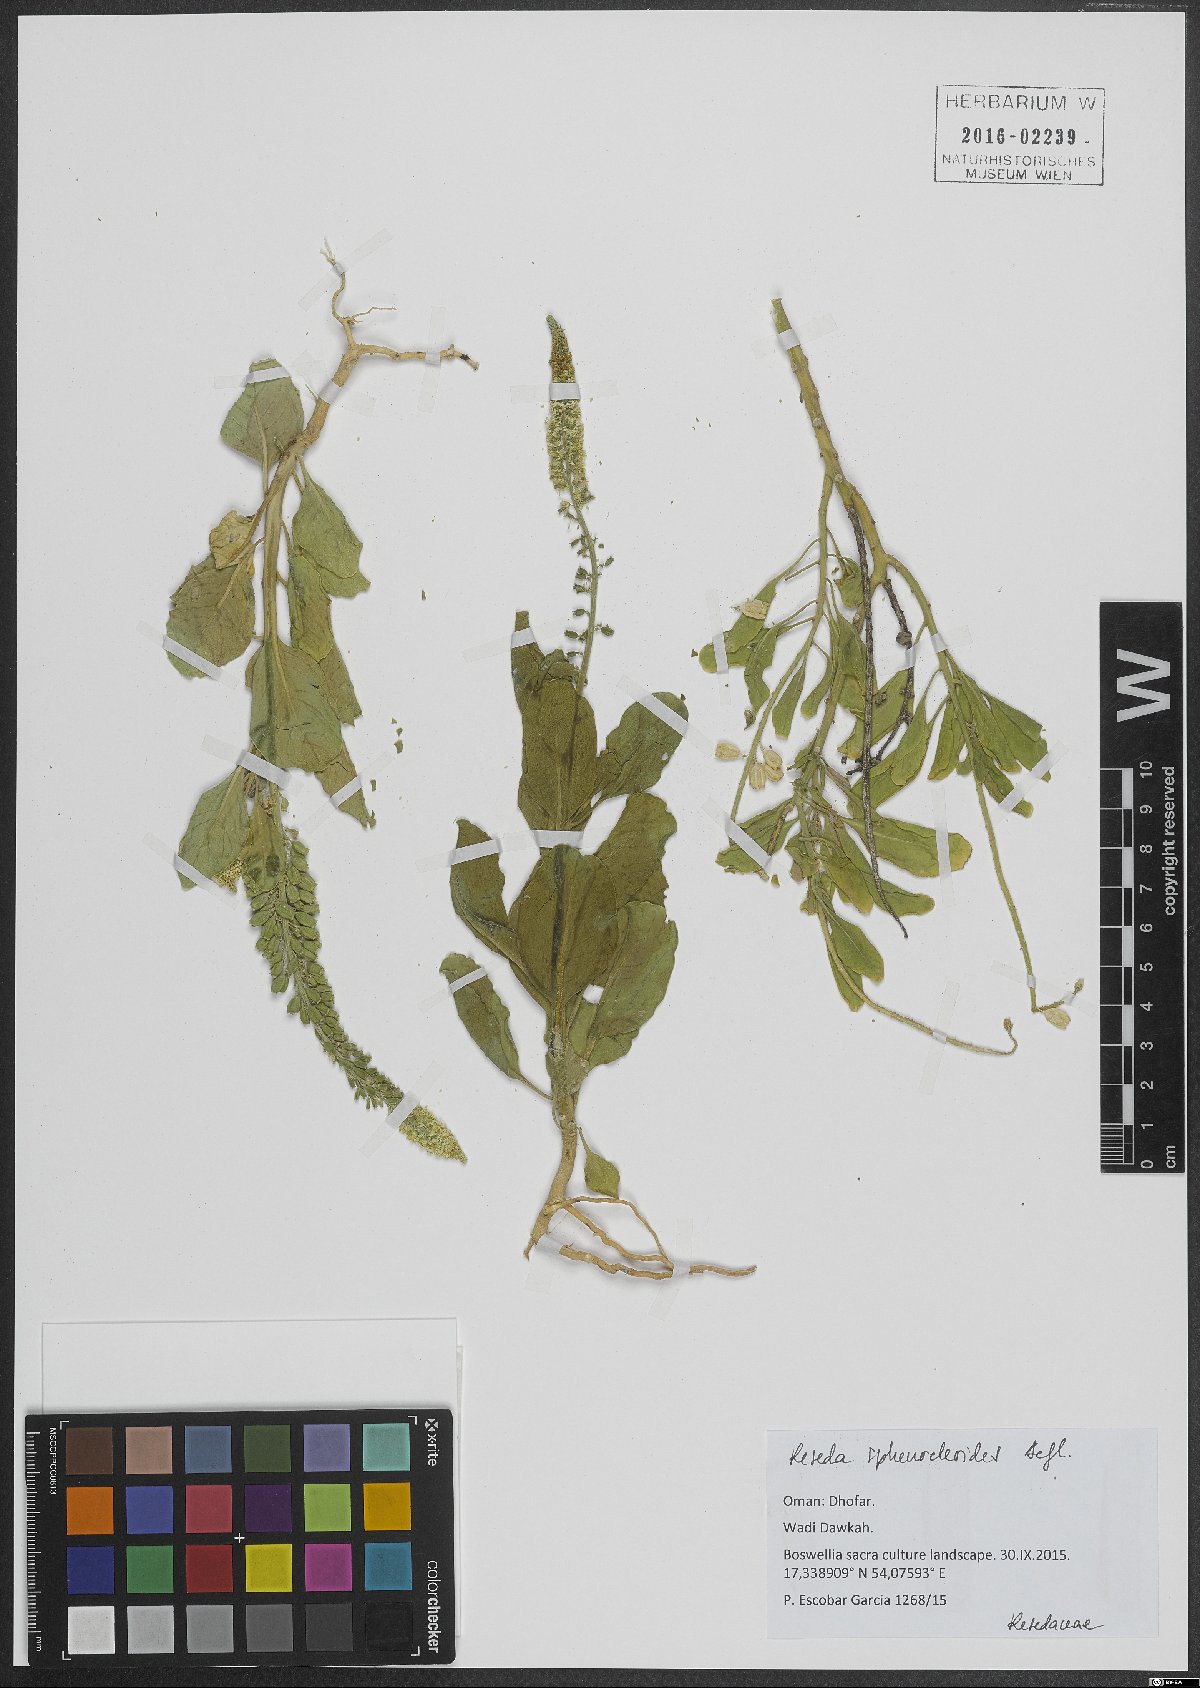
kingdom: Plantae
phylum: Tracheophyta
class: Magnoliopsida
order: Brassicales
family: Resedaceae
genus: Reseda
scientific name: Reseda sphenocleoides
